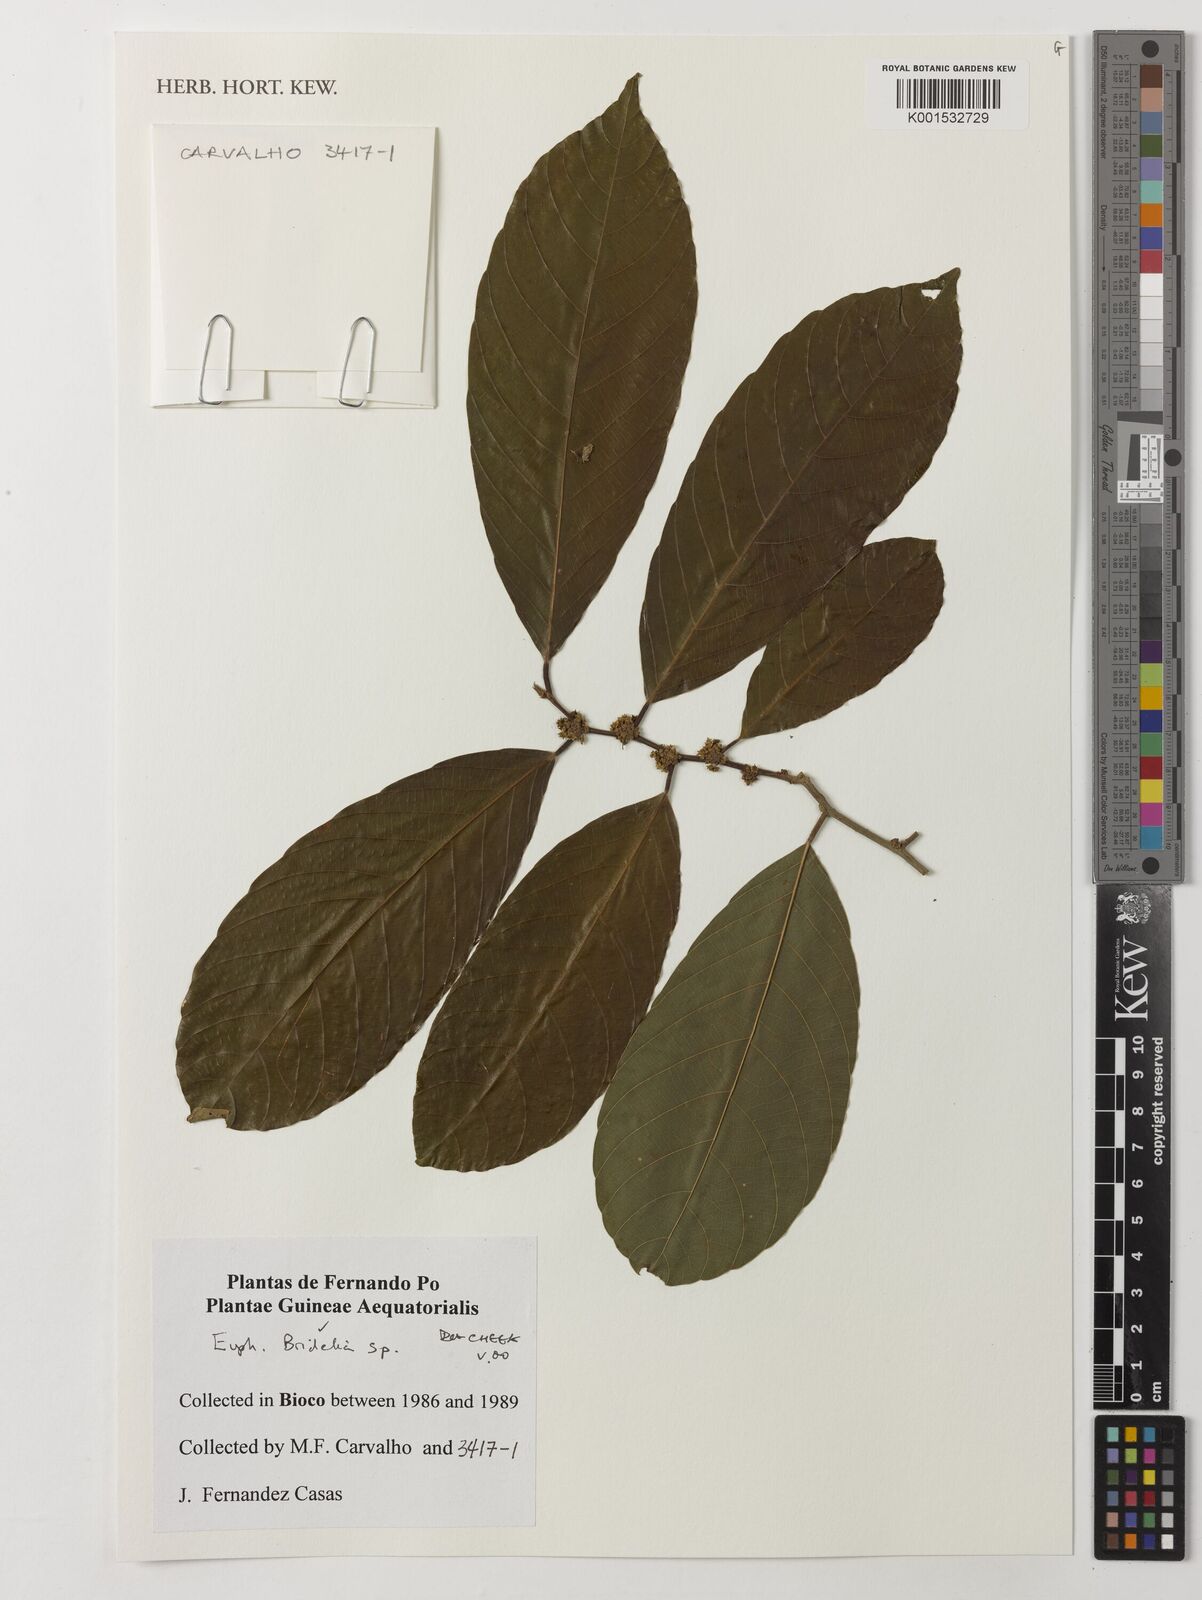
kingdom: Plantae
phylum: Tracheophyta
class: Magnoliopsida
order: Malpighiales
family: Phyllanthaceae
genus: Bridelia
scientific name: Bridelia
